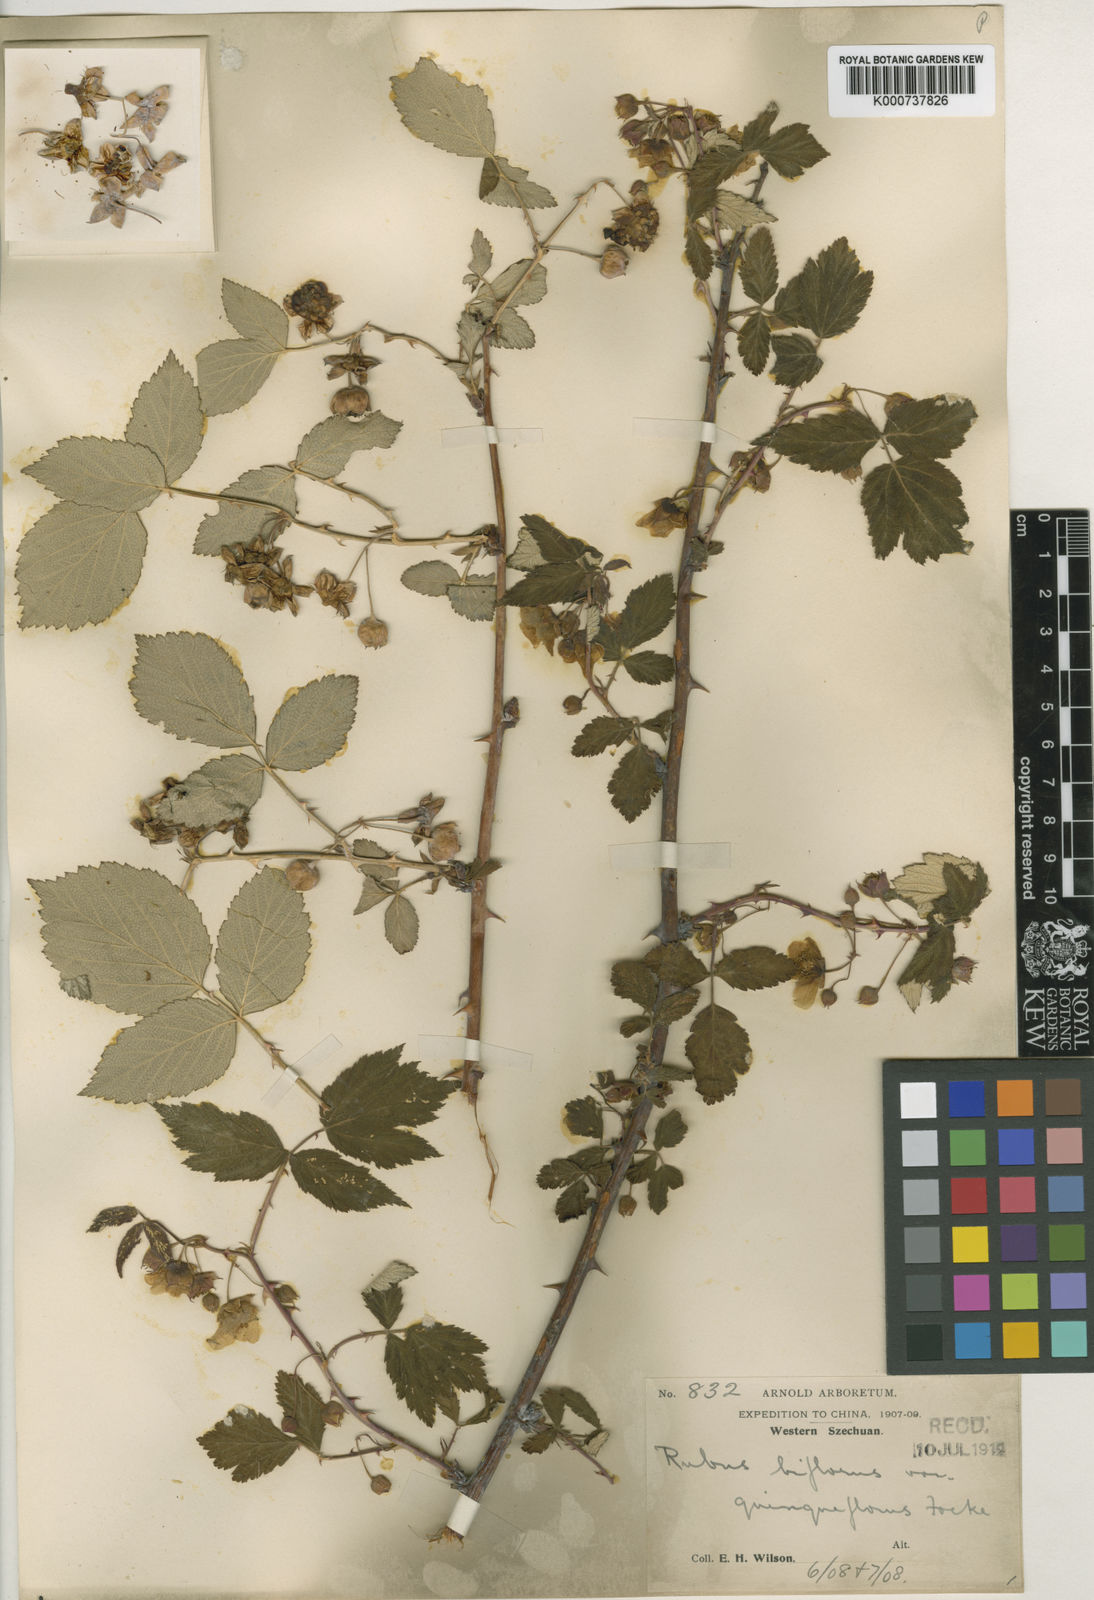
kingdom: Plantae
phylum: Tracheophyta
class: Magnoliopsida
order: Rosales
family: Rosaceae
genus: Rubus
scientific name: Rubus
